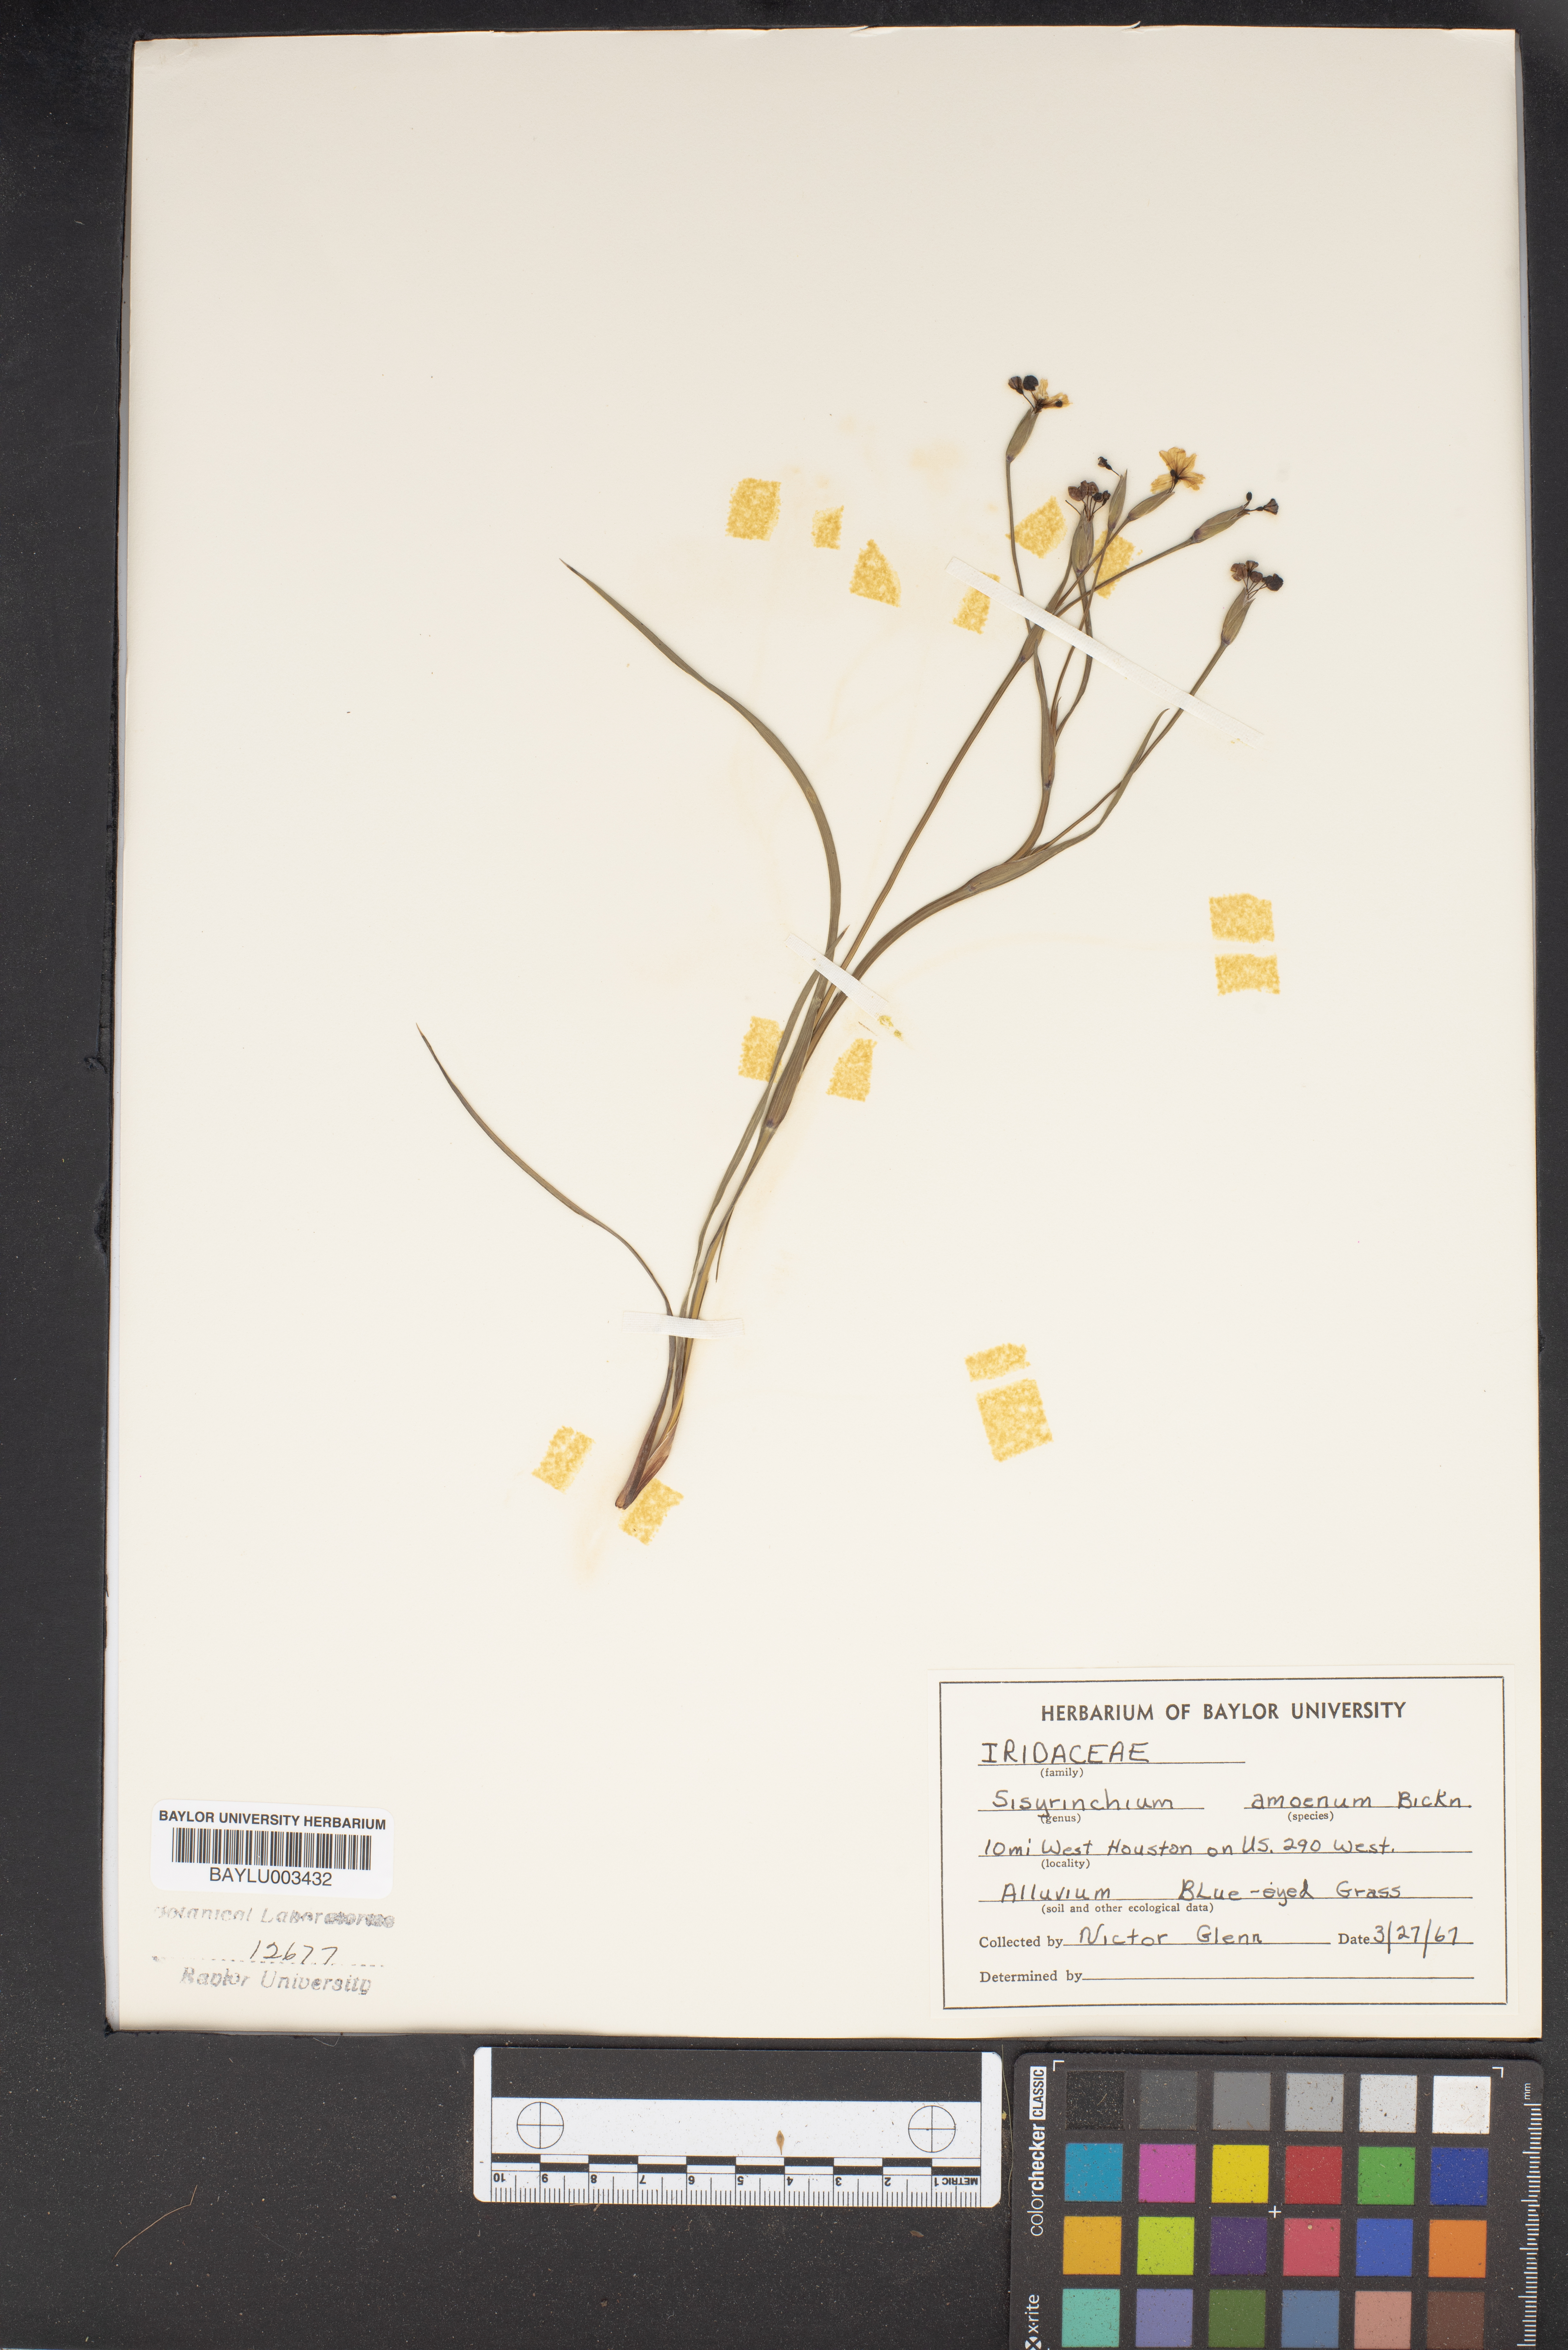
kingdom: Plantae
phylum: Tracheophyta
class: Liliopsida
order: Asparagales
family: Iridaceae
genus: Sisyrinchium
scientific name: Sisyrinchium ensigerum
